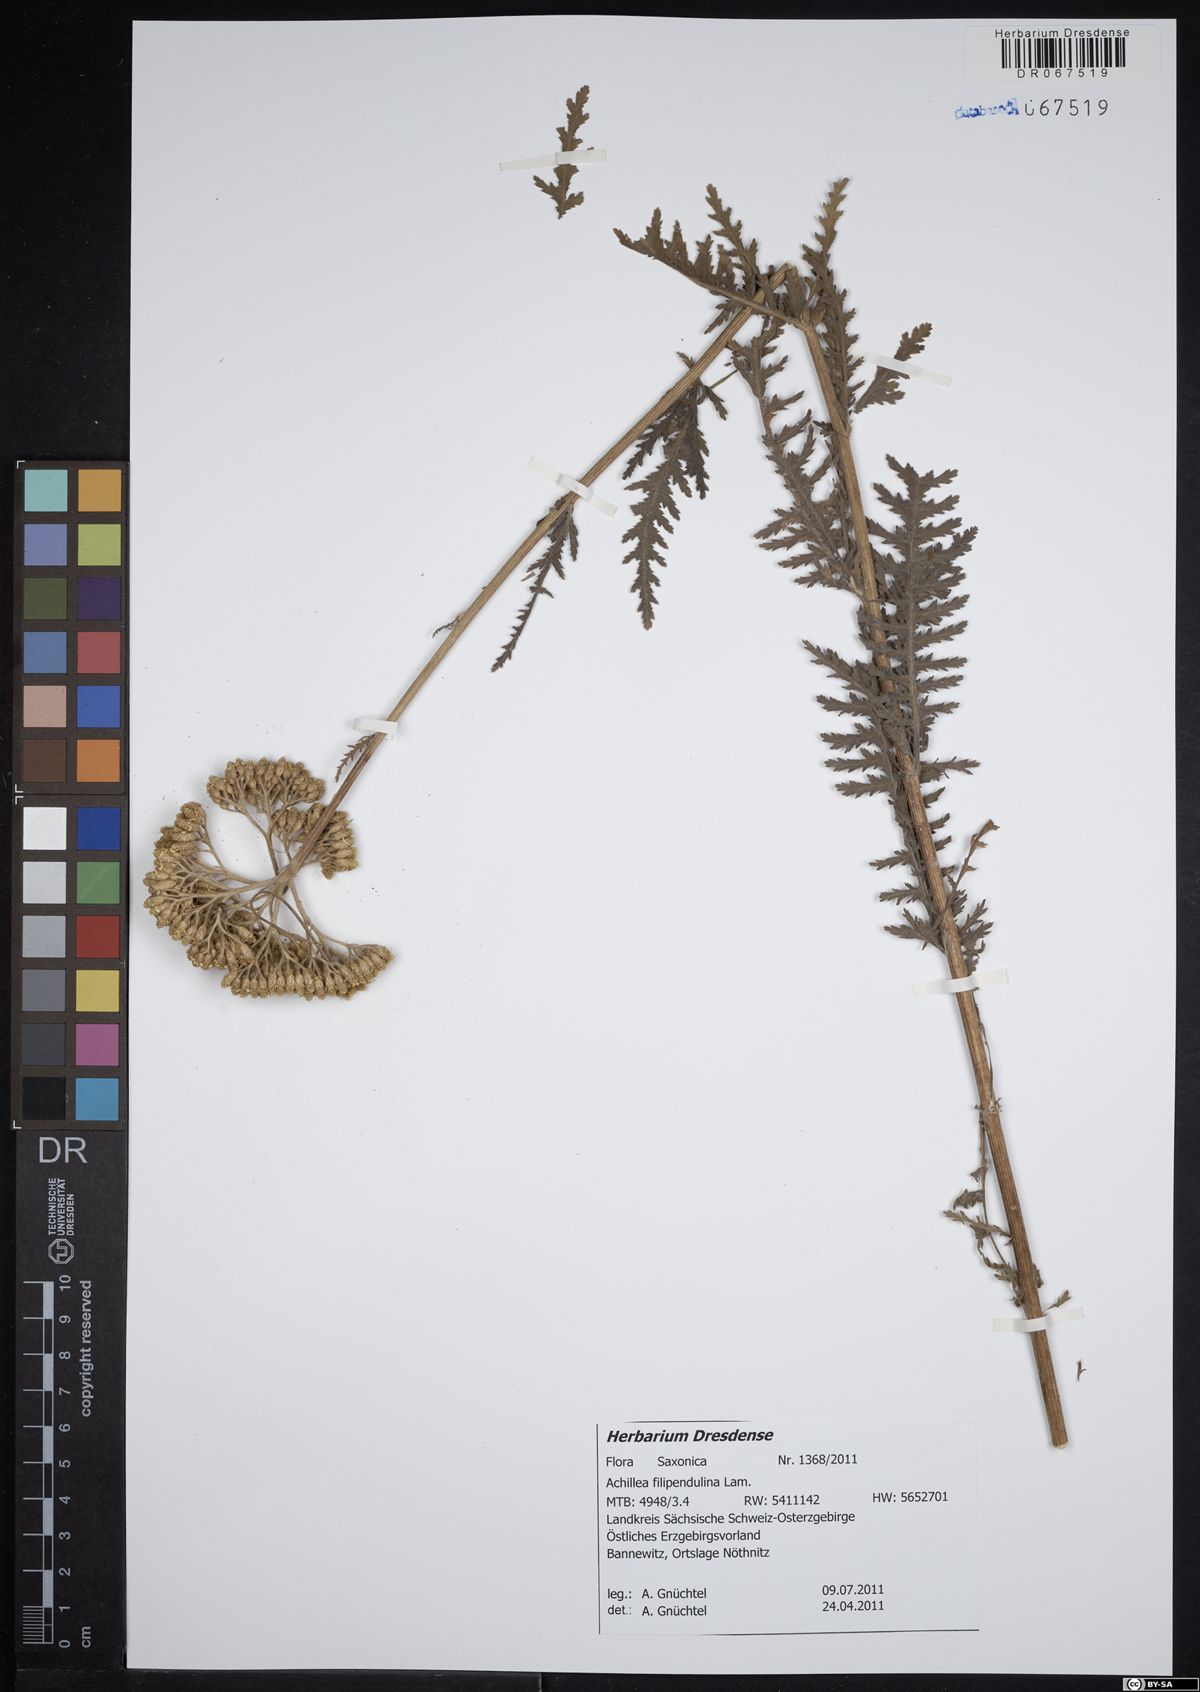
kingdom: Plantae
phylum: Tracheophyta
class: Magnoliopsida
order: Asterales
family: Asteraceae
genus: Achillea
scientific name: Achillea filipendulina
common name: Fernleaf yarrow
